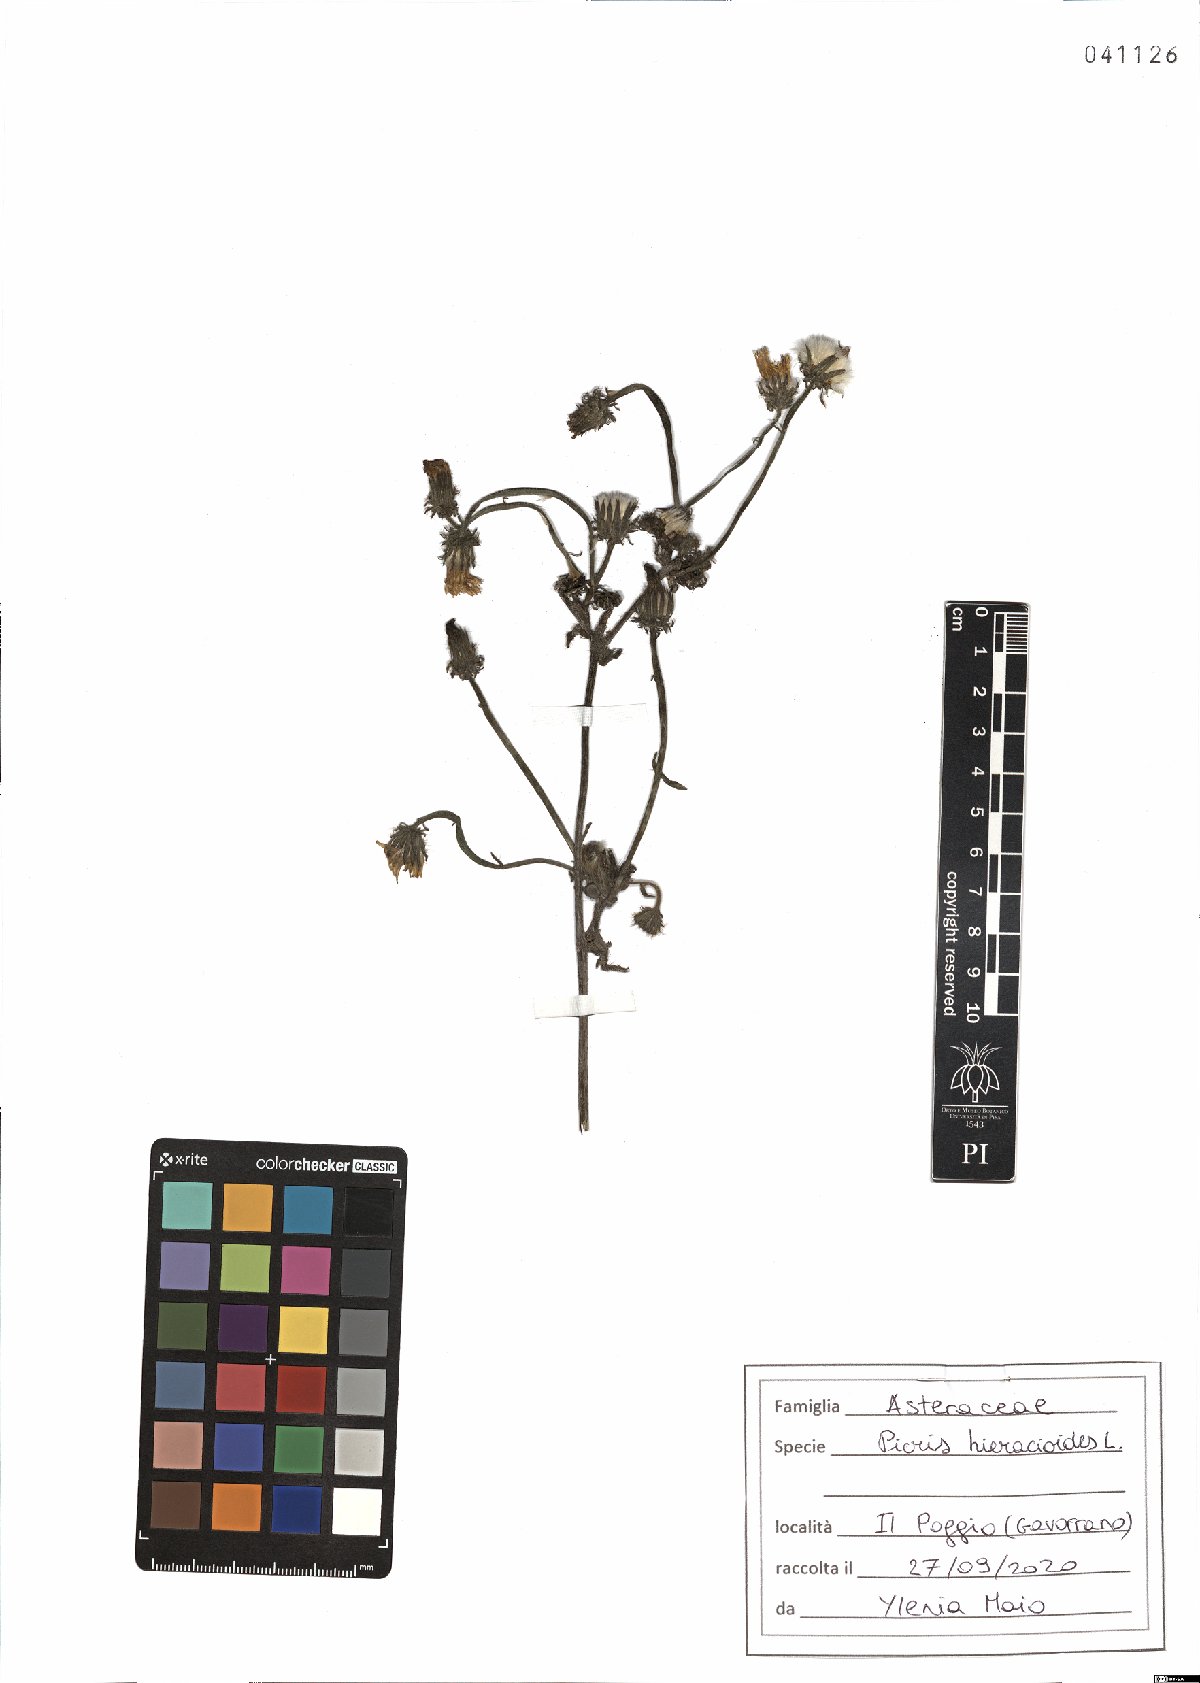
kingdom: Plantae
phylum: Tracheophyta
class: Magnoliopsida
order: Asterales
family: Asteraceae
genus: Picris
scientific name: Picris hieracioides
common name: Hawkweed oxtongue
